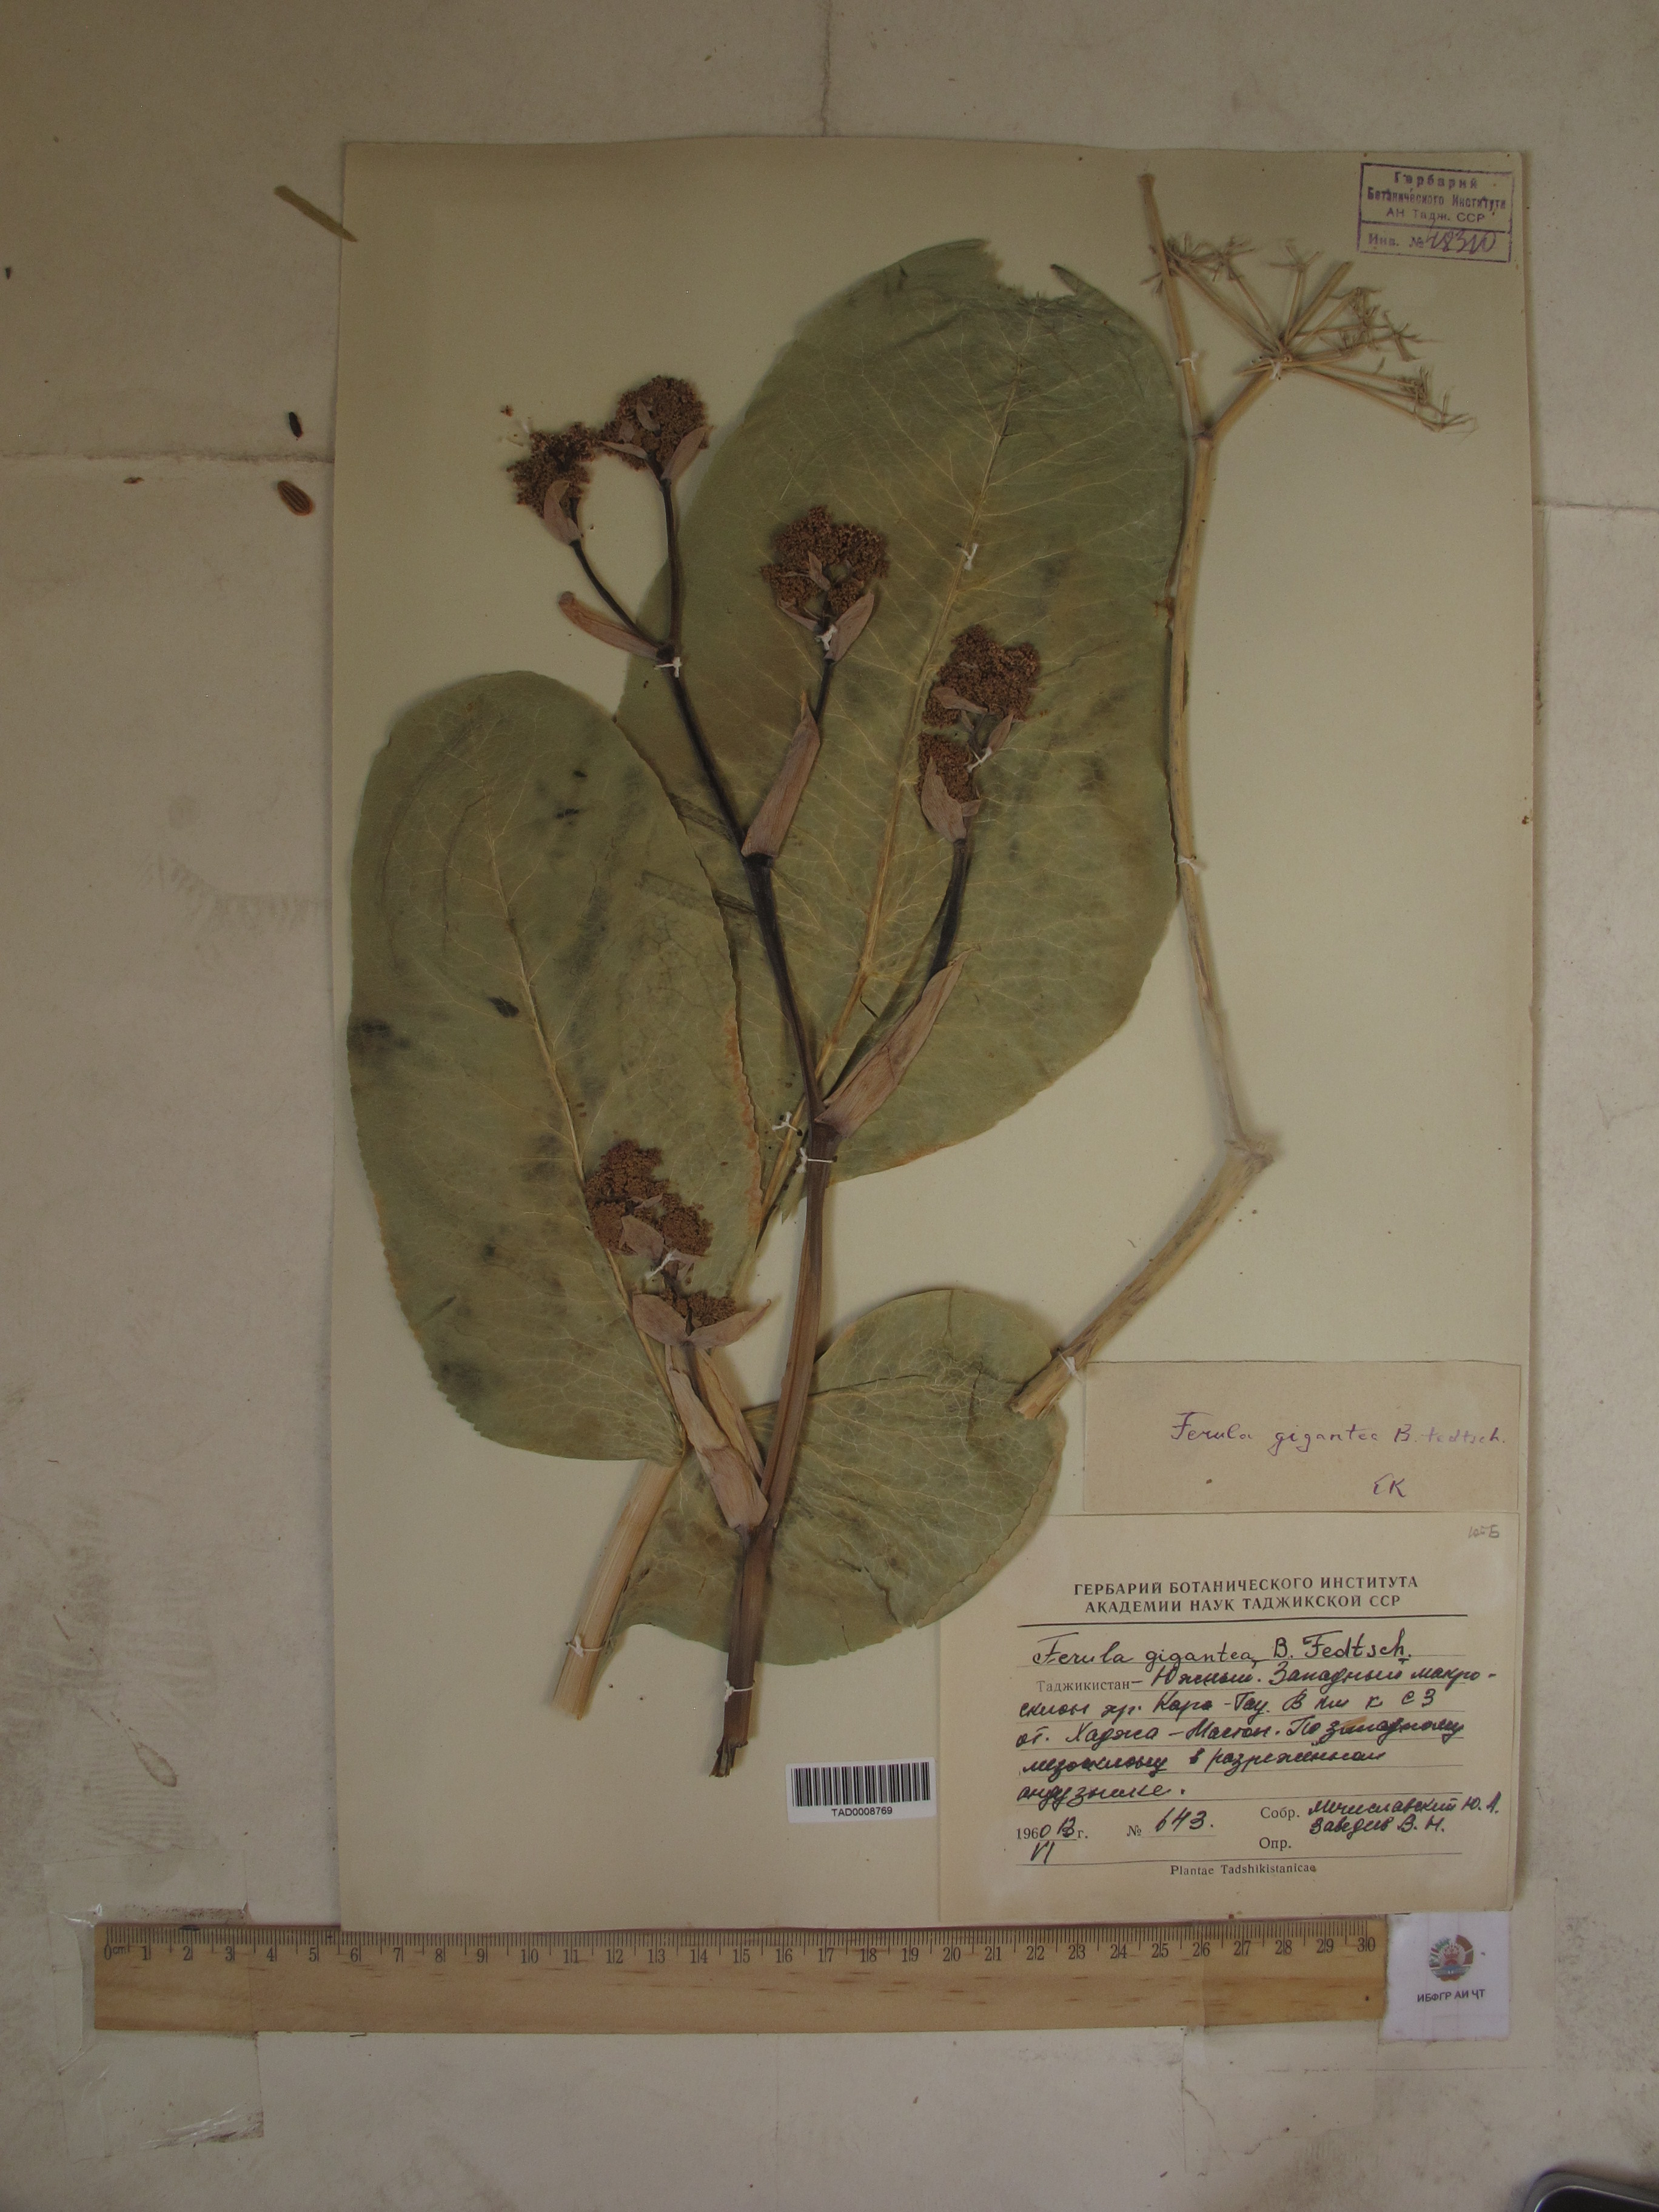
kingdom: Plantae
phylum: Tracheophyta
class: Magnoliopsida
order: Apiales
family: Apiaceae
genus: Ferula
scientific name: Ferula gigantea
